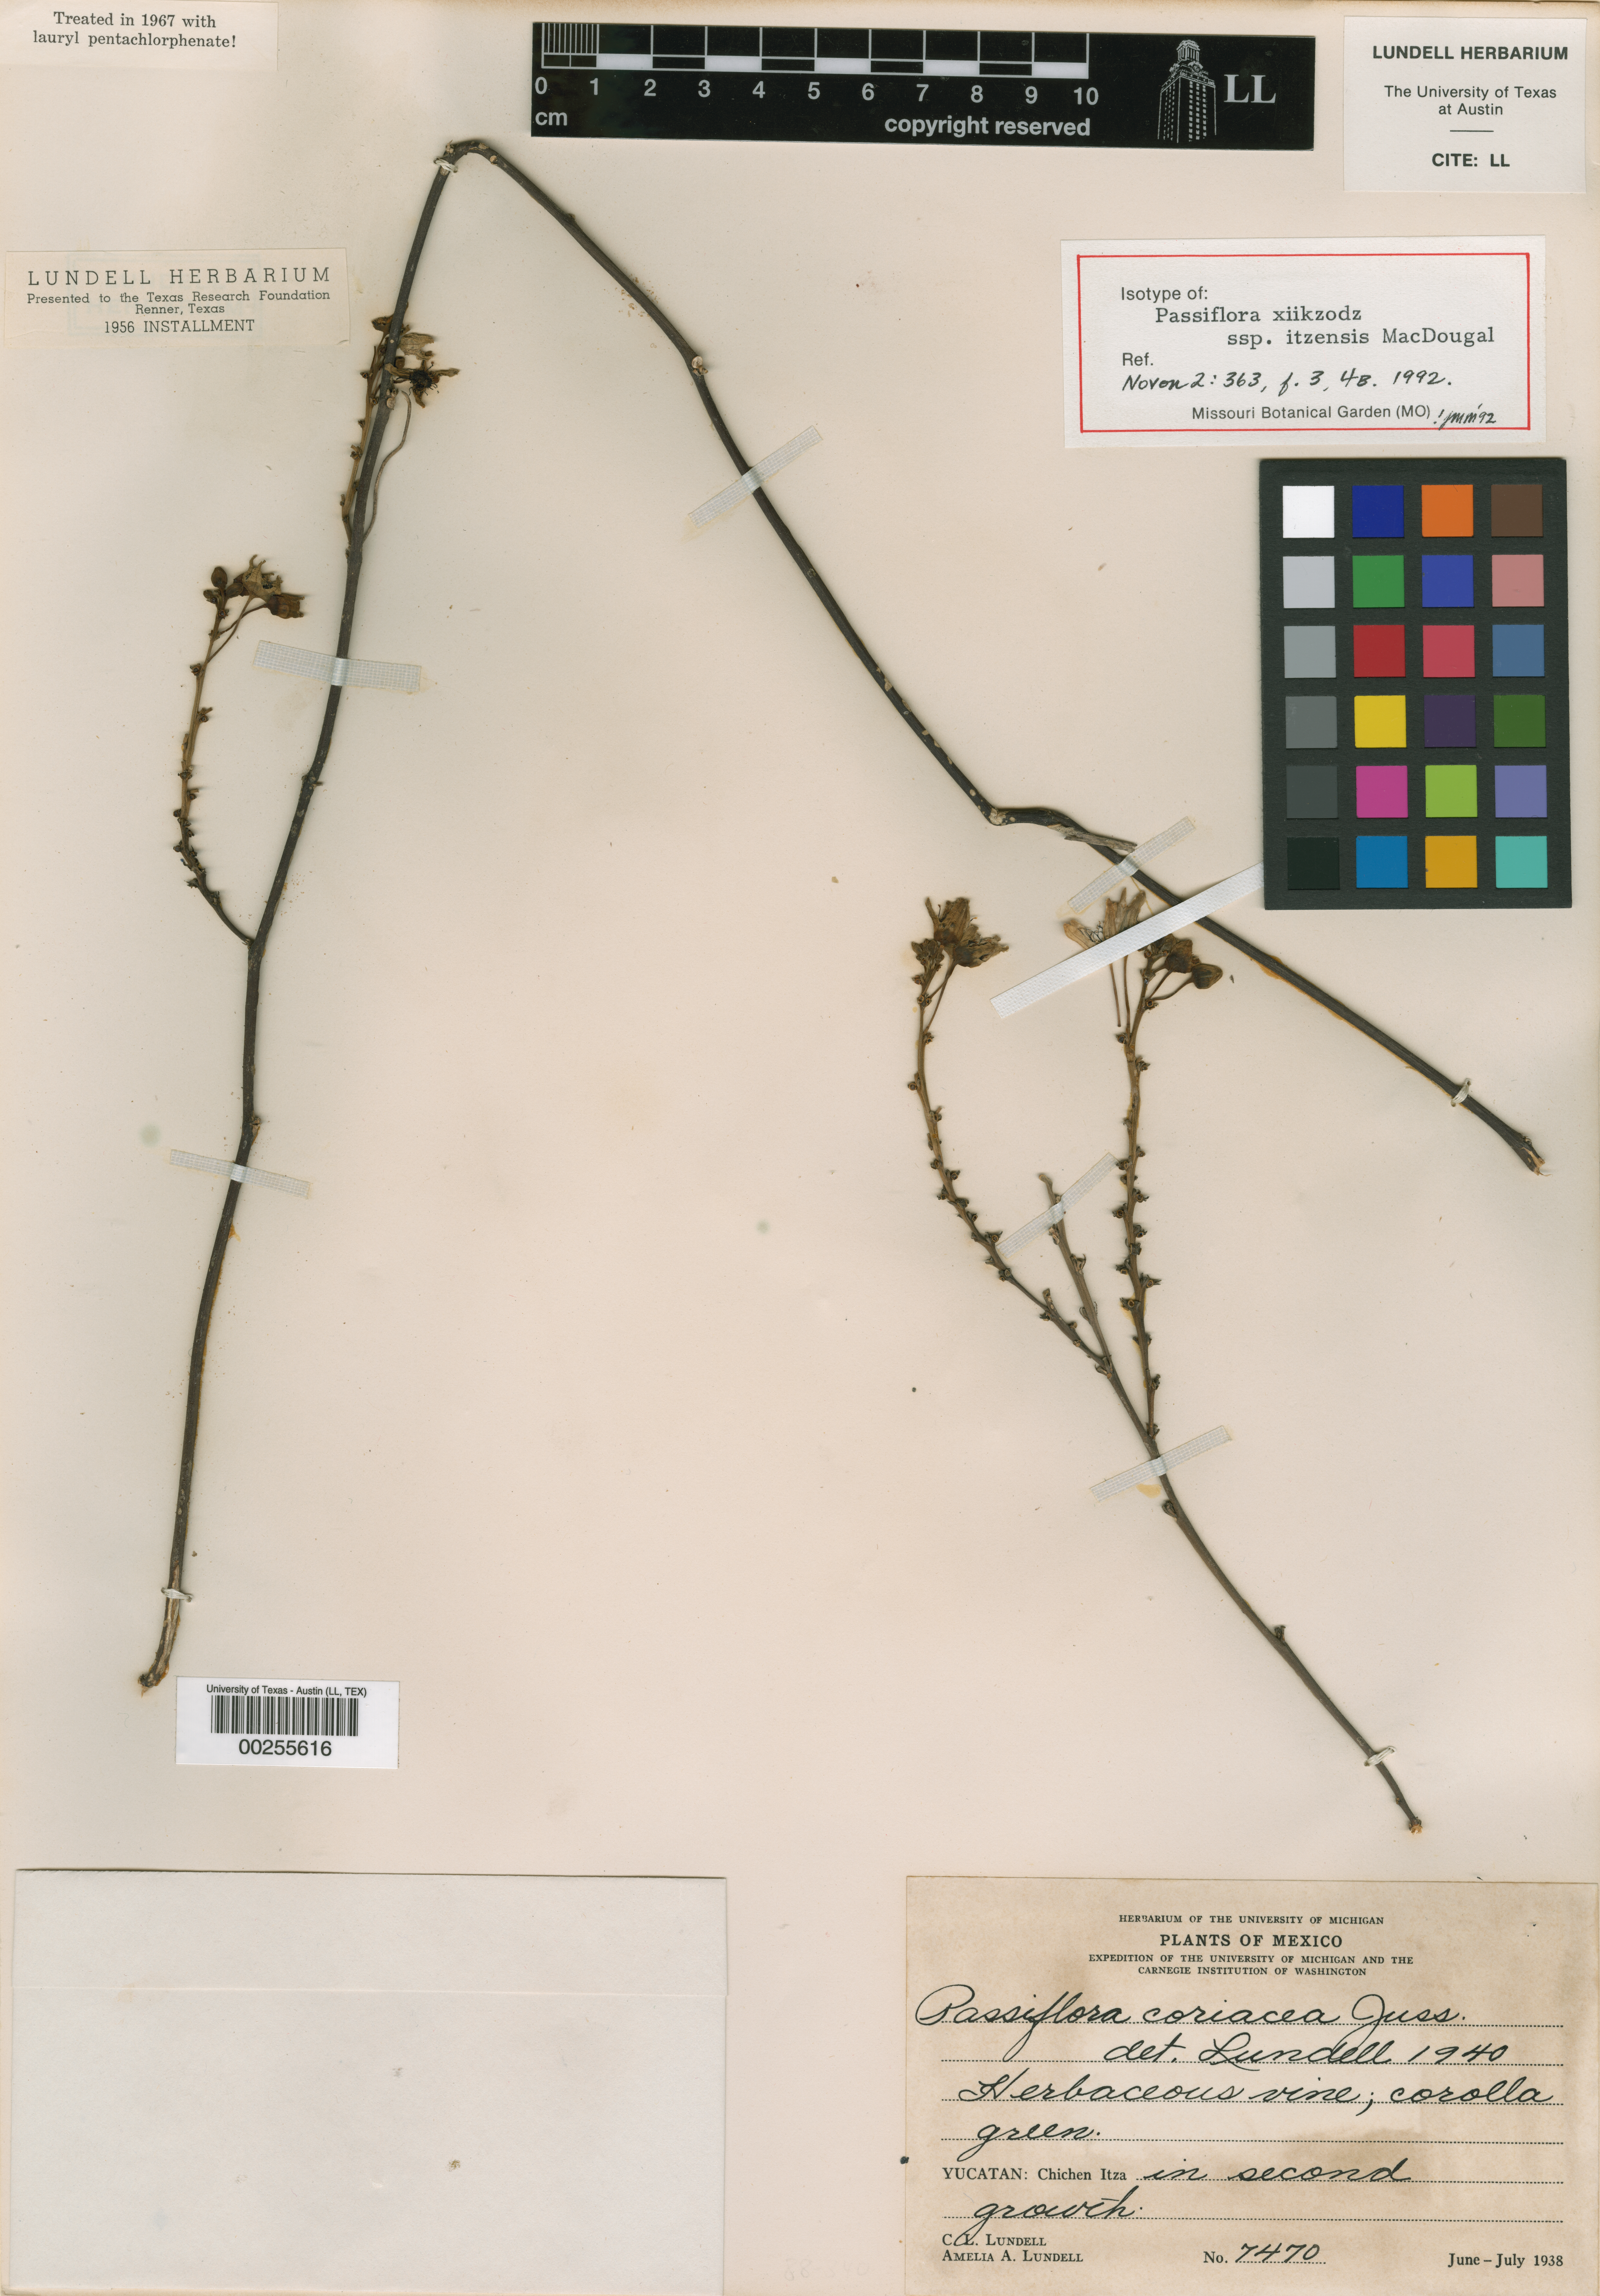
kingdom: Plantae
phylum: Tracheophyta
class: Magnoliopsida
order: Malpighiales
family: Passifloraceae
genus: Passiflora
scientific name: Passiflora itzensis
